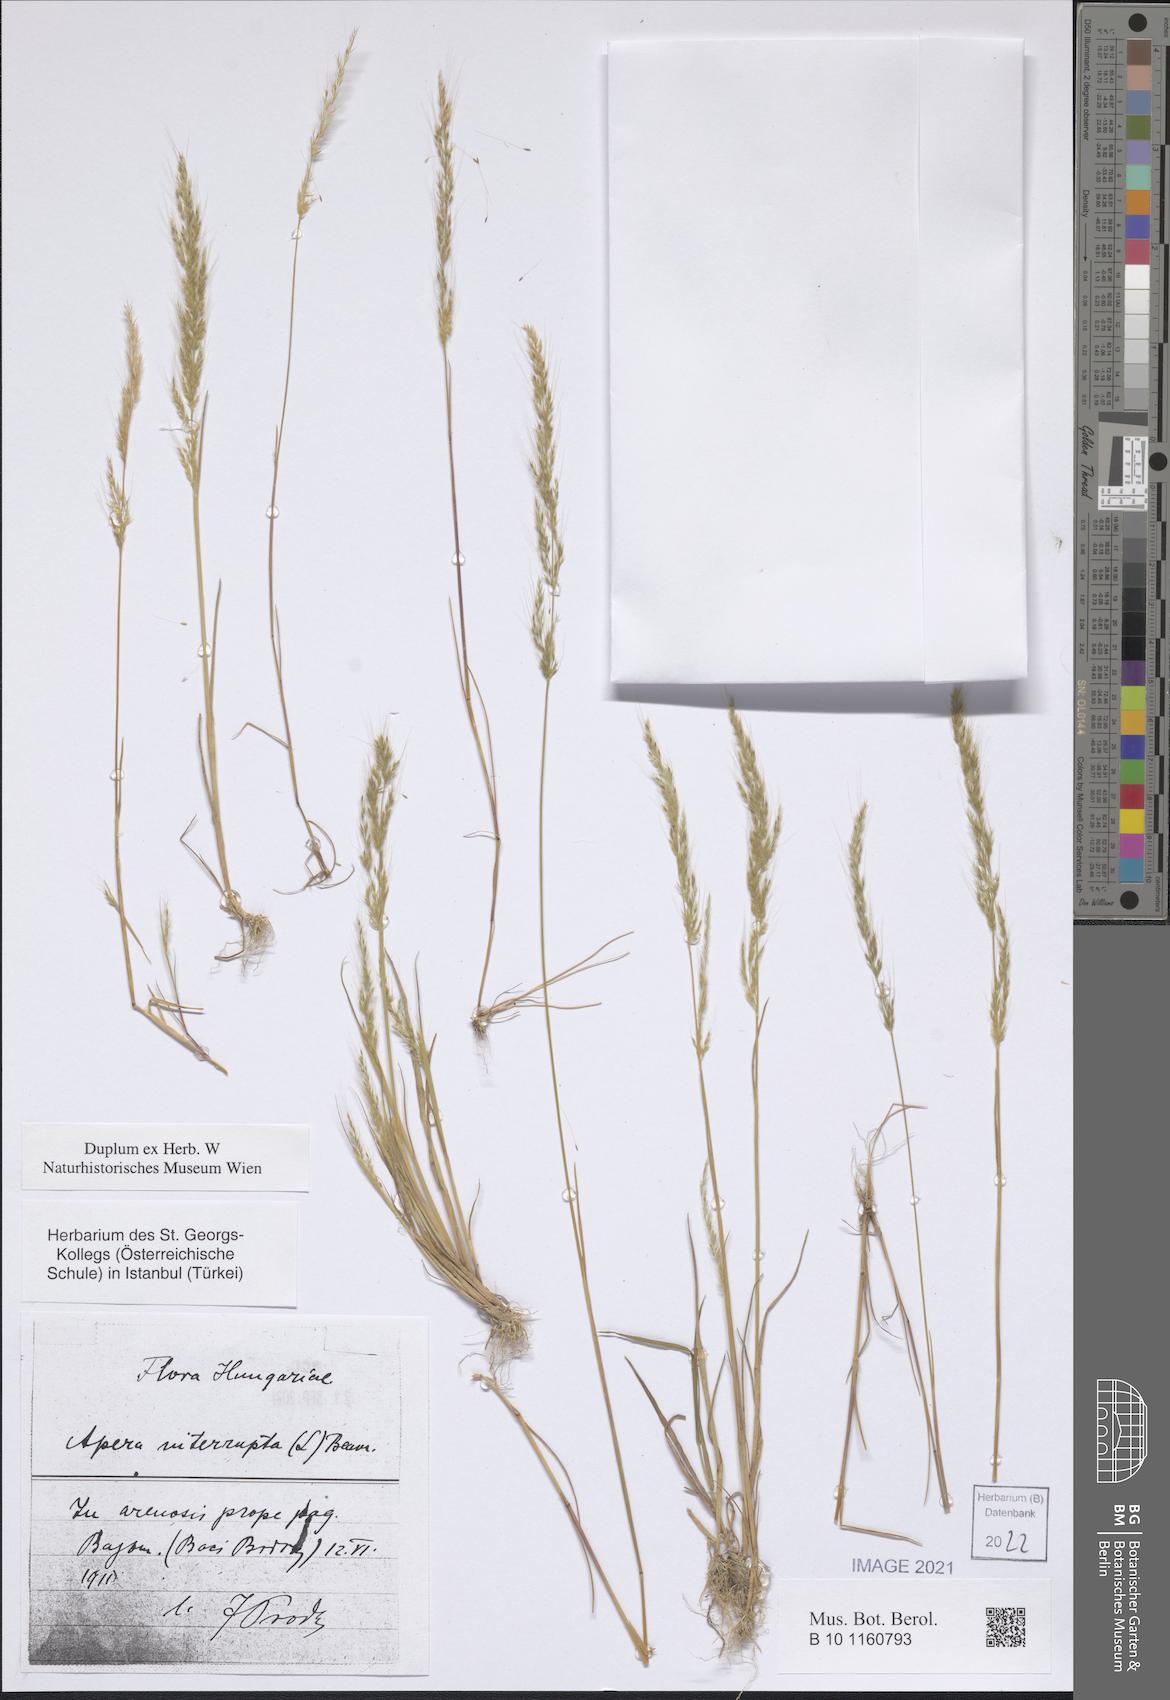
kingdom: Plantae
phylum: Tracheophyta
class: Liliopsida
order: Poales
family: Poaceae
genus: Apera
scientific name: Apera interrupta
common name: Dense silky-bent
